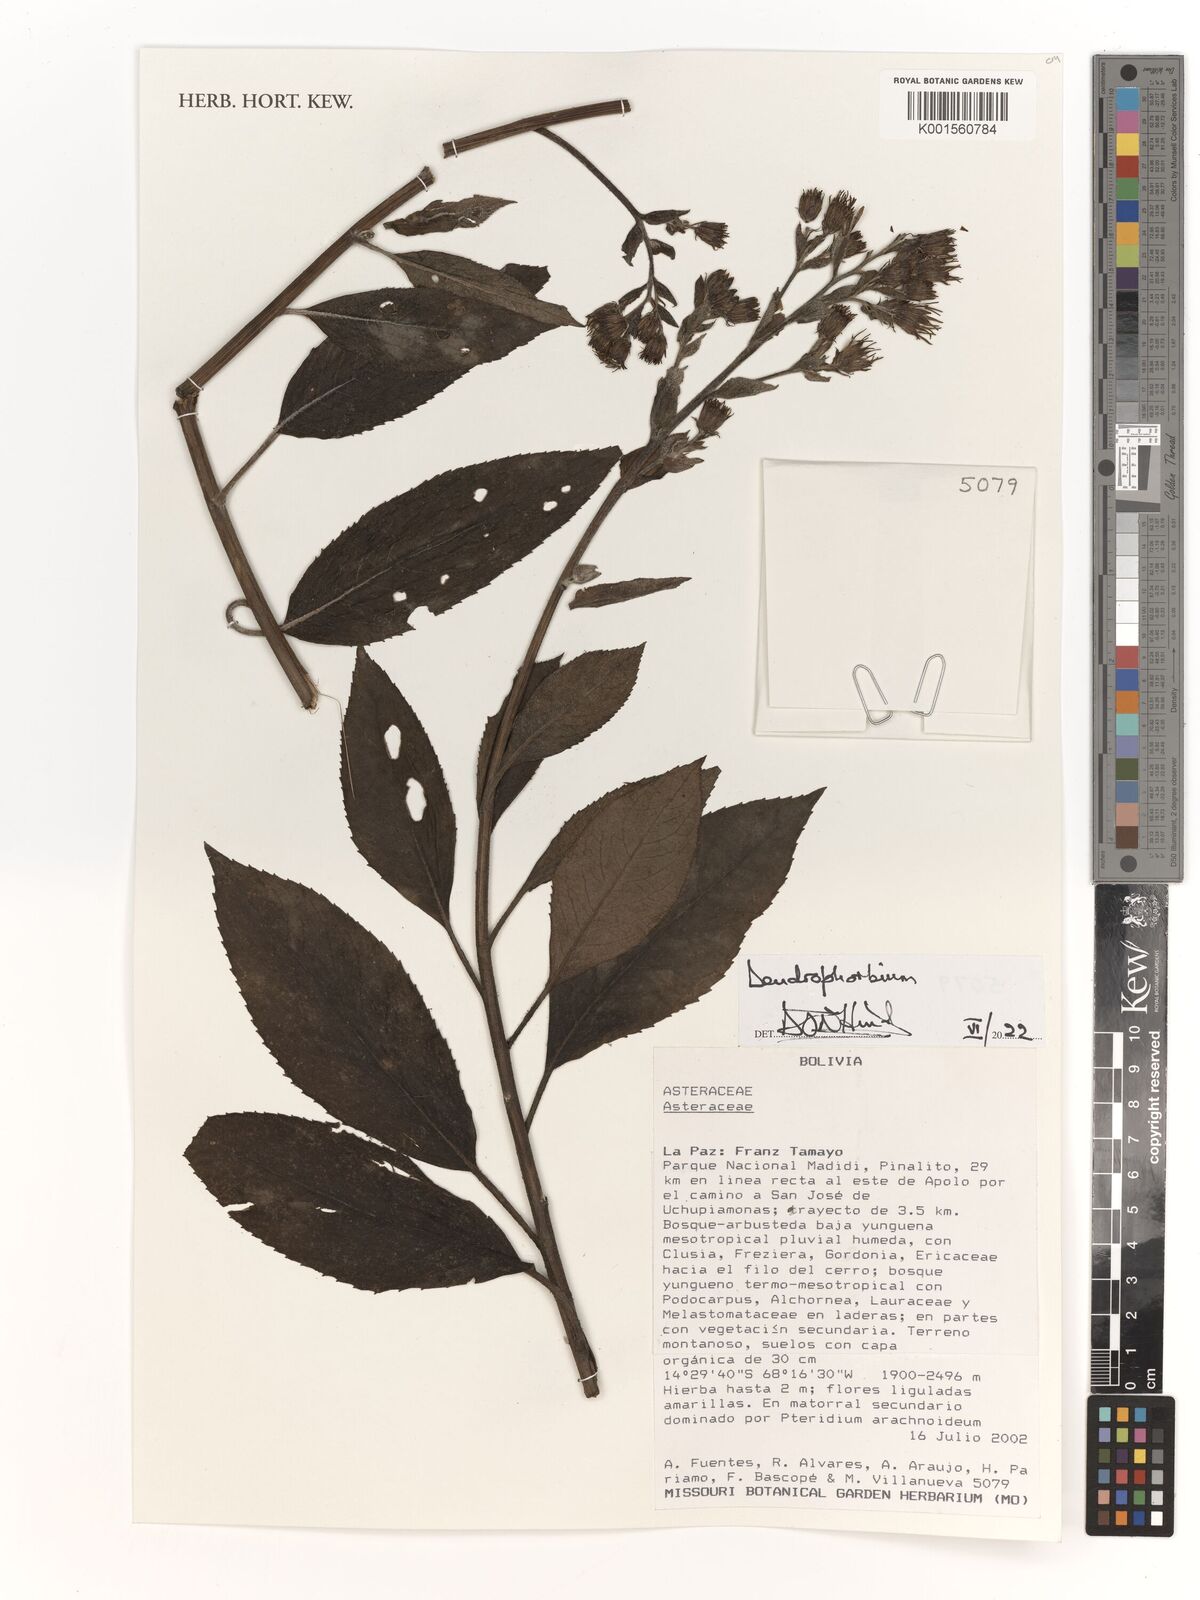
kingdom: Plantae
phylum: Tracheophyta
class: Magnoliopsida
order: Asterales
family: Asteraceae
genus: Dendrophorbium
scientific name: Dendrophorbium
